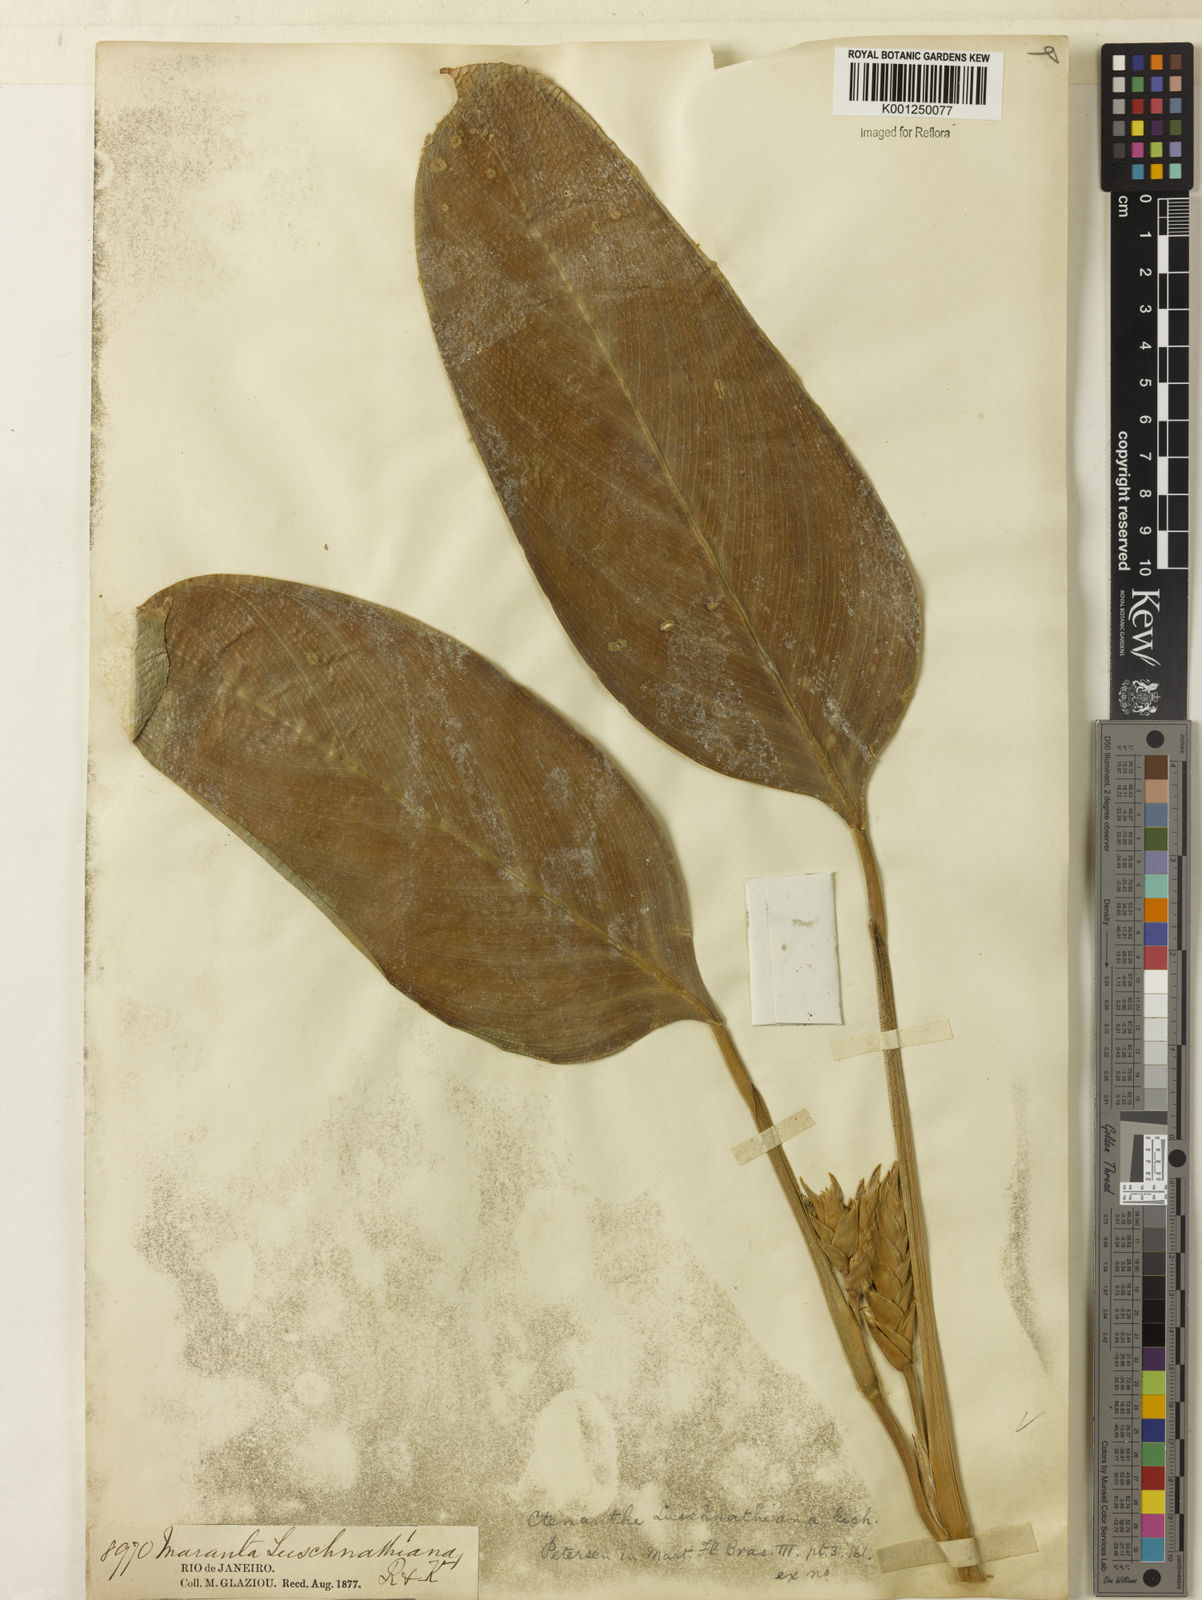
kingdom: Plantae
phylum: Tracheophyta
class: Liliopsida
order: Zingiberales
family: Marantaceae
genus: Ctenanthe
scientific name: Ctenanthe compressa
